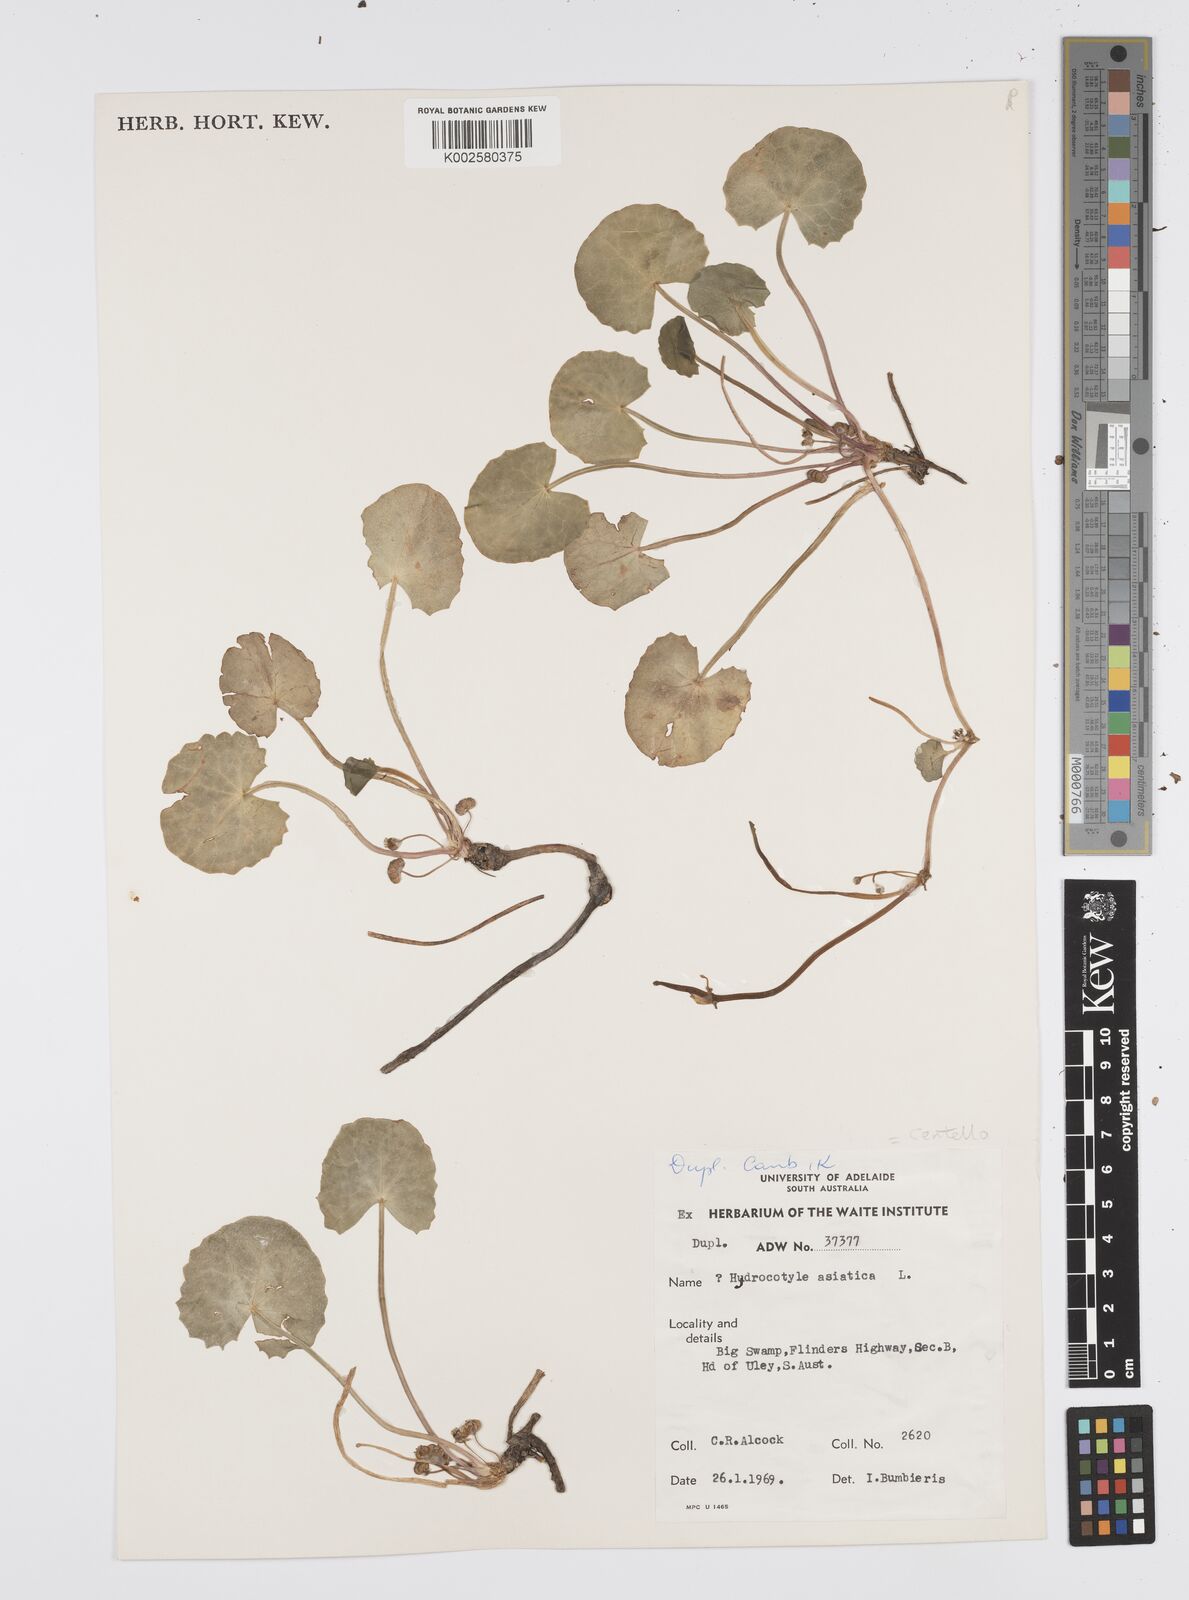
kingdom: Plantae
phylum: Tracheophyta
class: Magnoliopsida
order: Apiales
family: Apiaceae
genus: Centella
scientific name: Centella asiatica
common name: Spadeleaf
